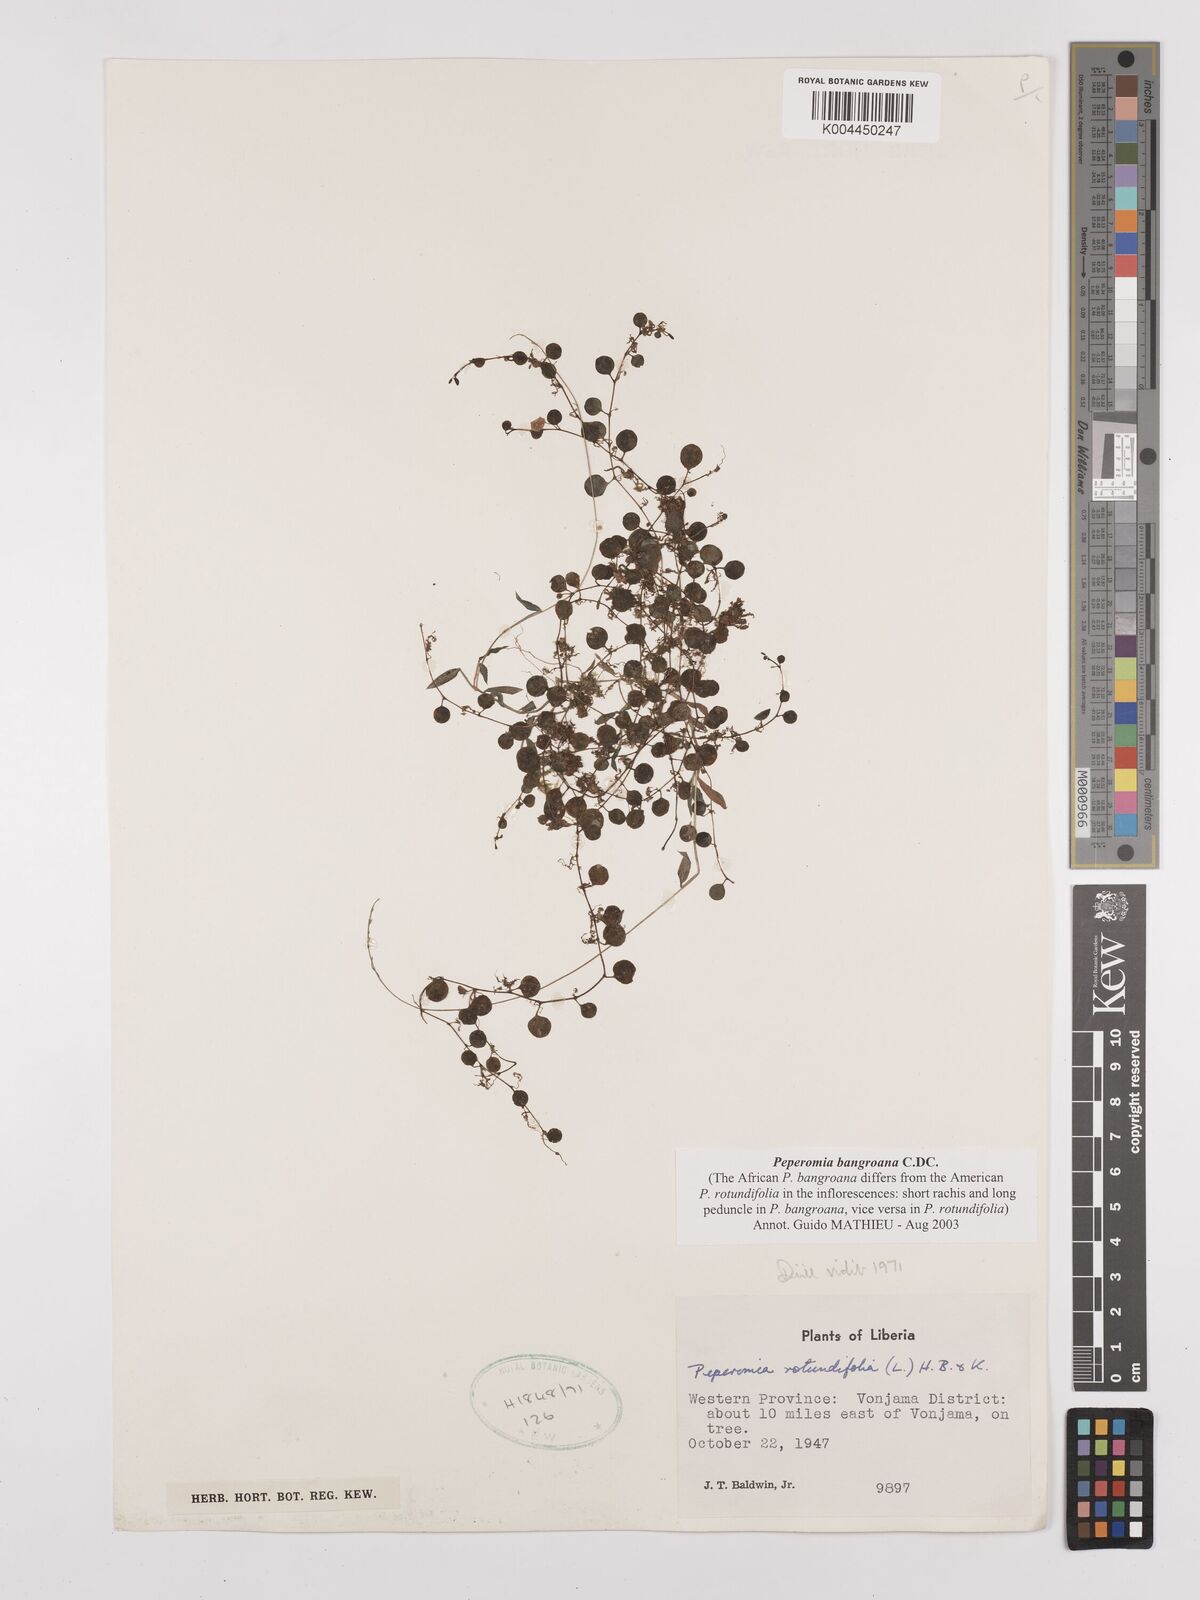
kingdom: Plantae
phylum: Tracheophyta
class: Magnoliopsida
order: Piperales
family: Piperaceae
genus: Peperomia
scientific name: Peperomia bangroana
